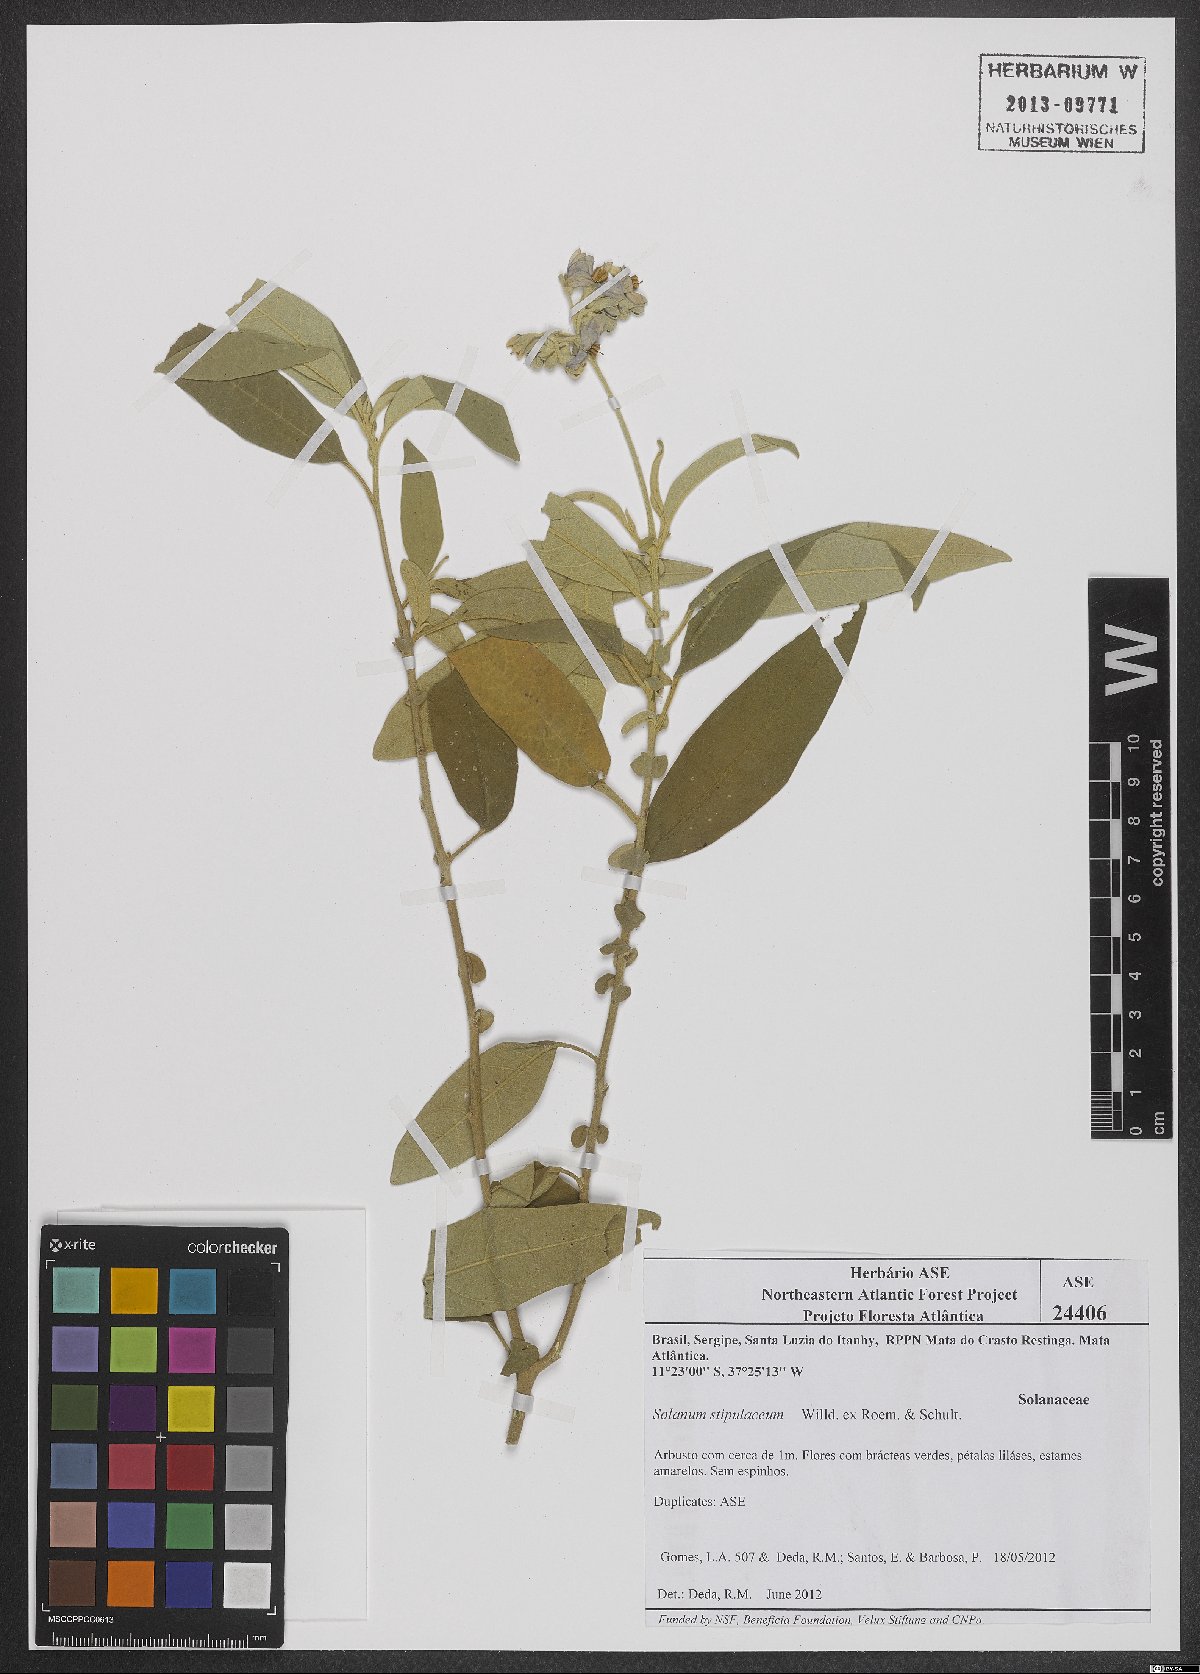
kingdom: Plantae
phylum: Tracheophyta
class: Magnoliopsida
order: Solanales
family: Solanaceae
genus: Solanum
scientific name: Solanum stipulaceum
